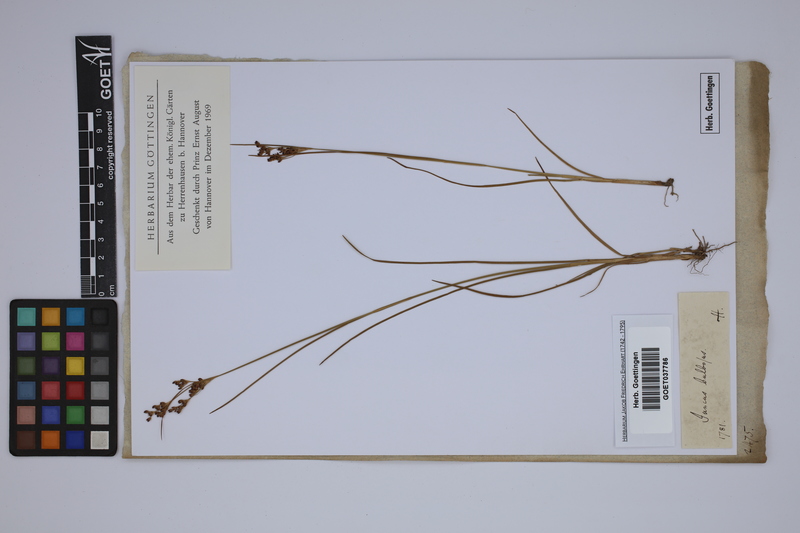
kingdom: Plantae
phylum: Tracheophyta
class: Liliopsida
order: Poales
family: Juncaceae
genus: Juncus
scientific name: Juncus bulbosus
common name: Bulbous rush
